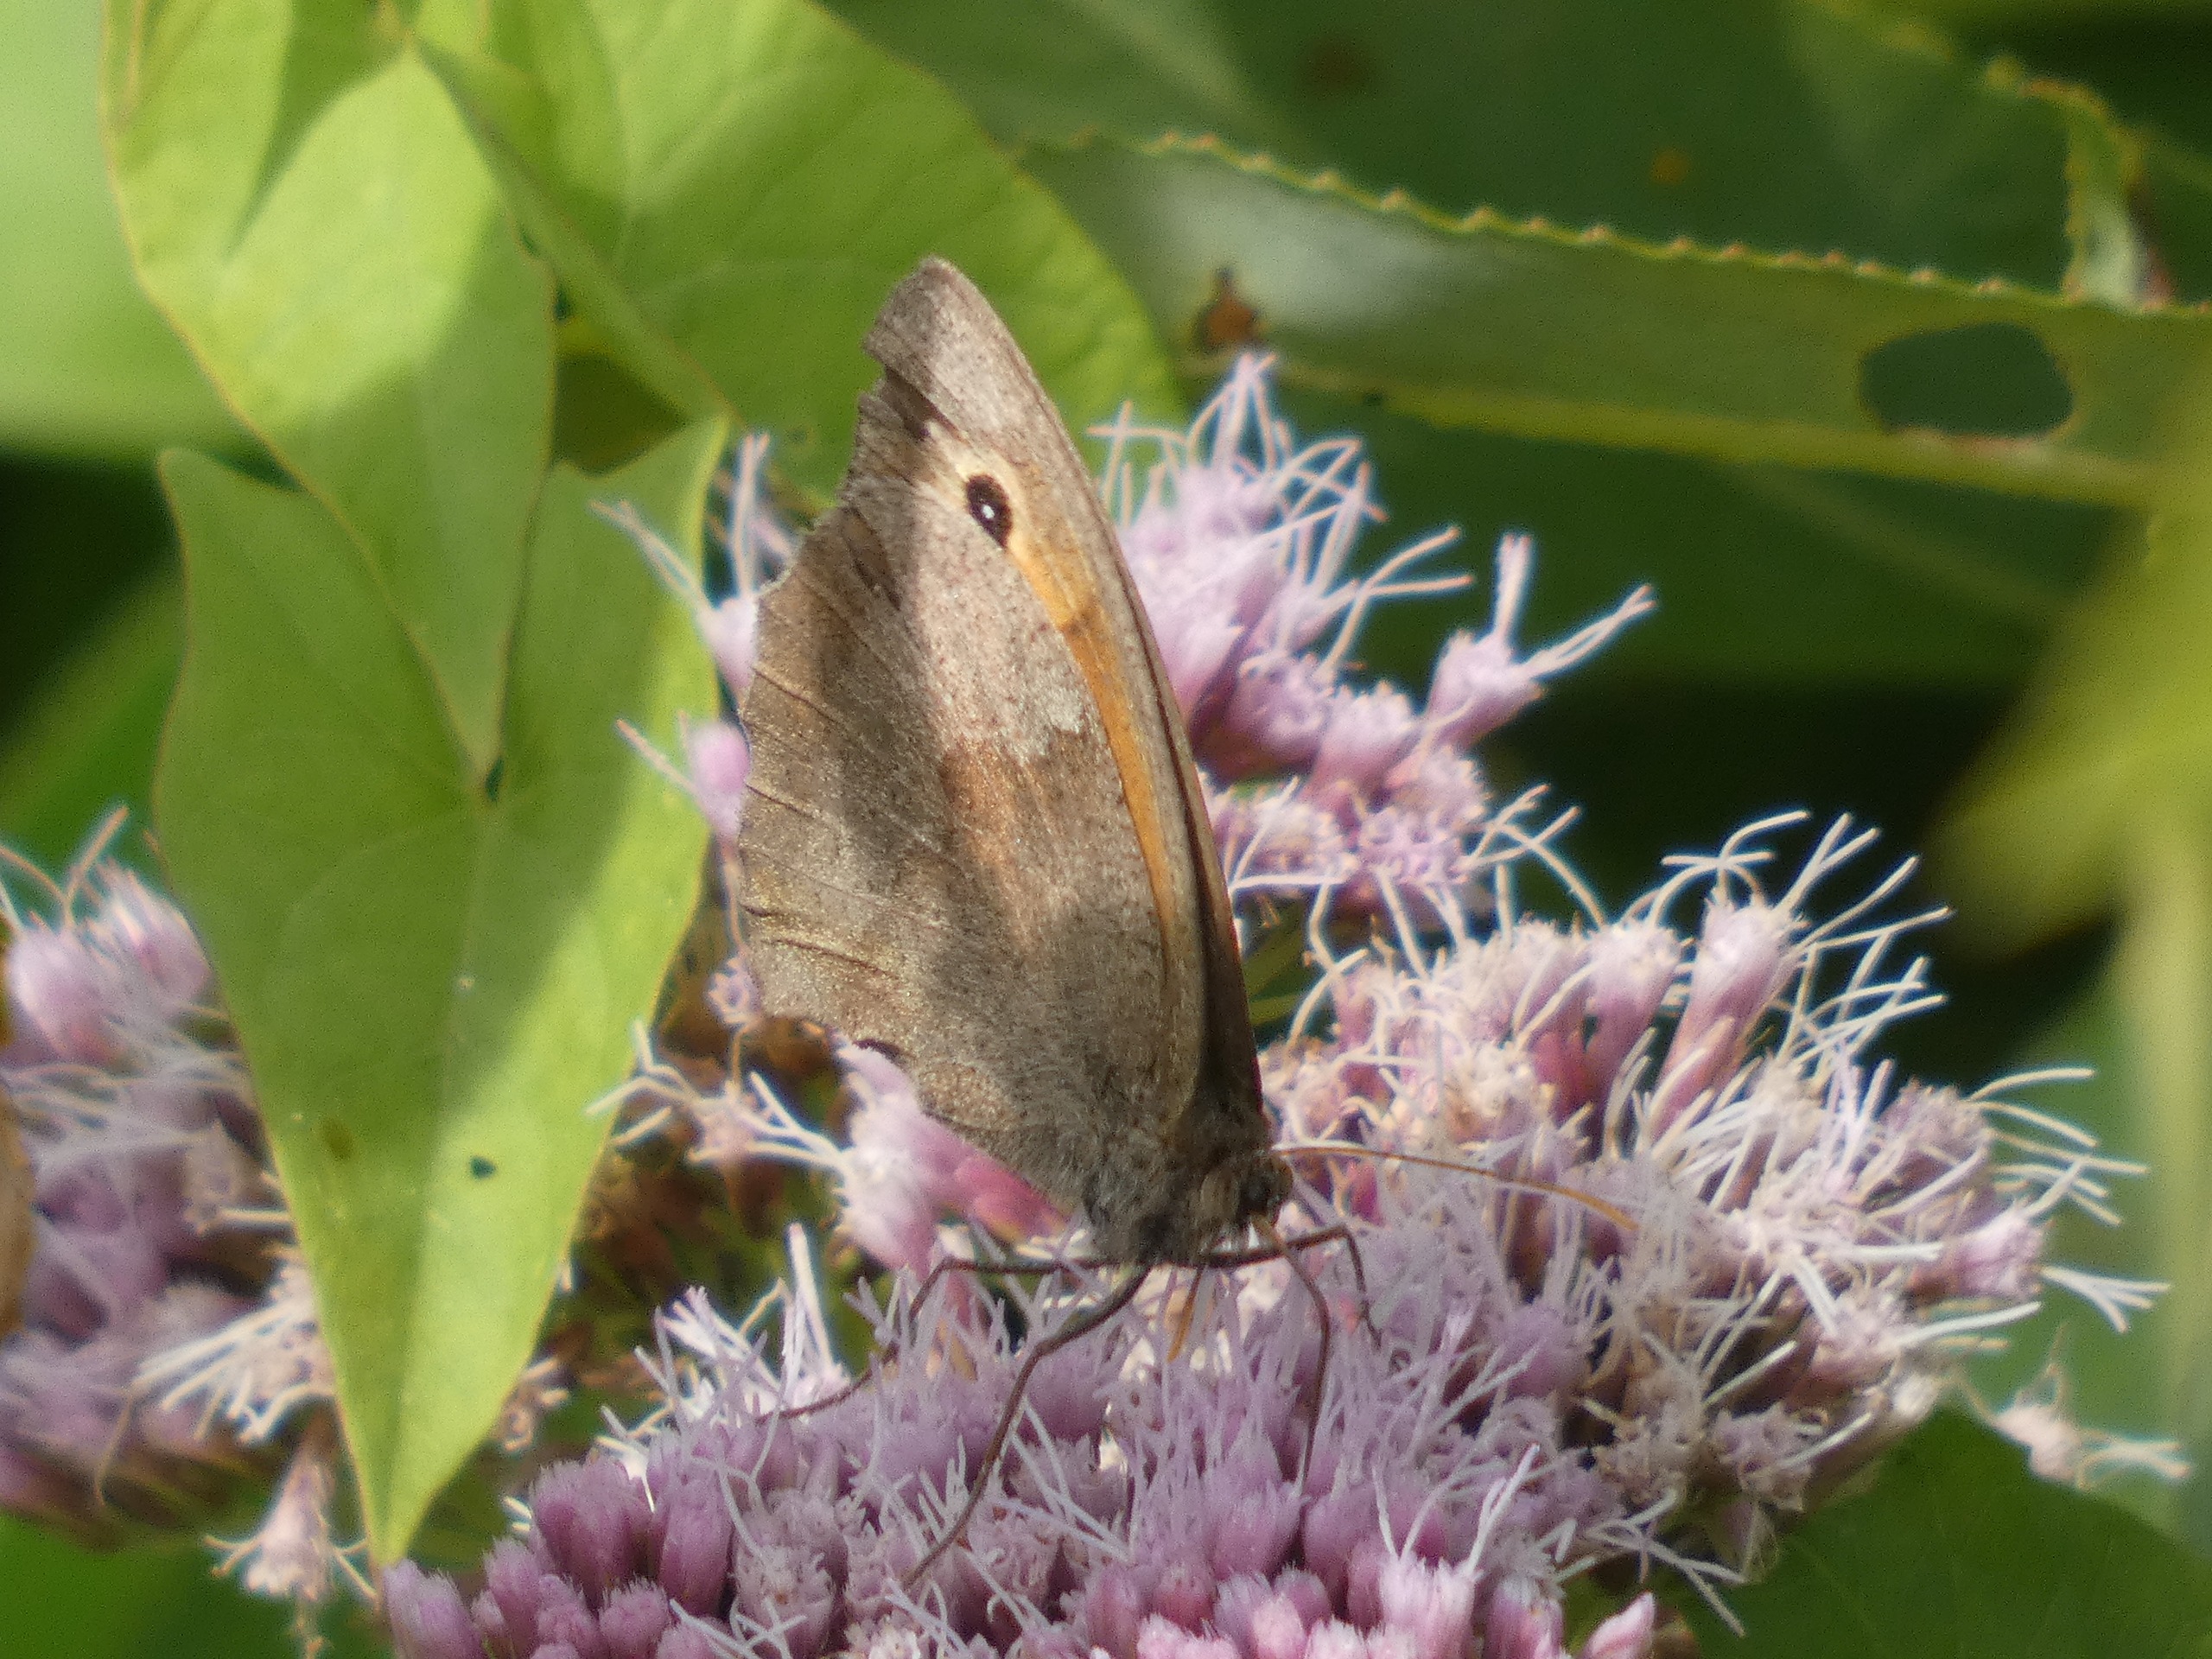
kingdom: Animalia
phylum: Arthropoda
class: Insecta
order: Lepidoptera
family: Nymphalidae
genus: Maniola
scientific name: Maniola jurtina
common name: Græsrandøje
